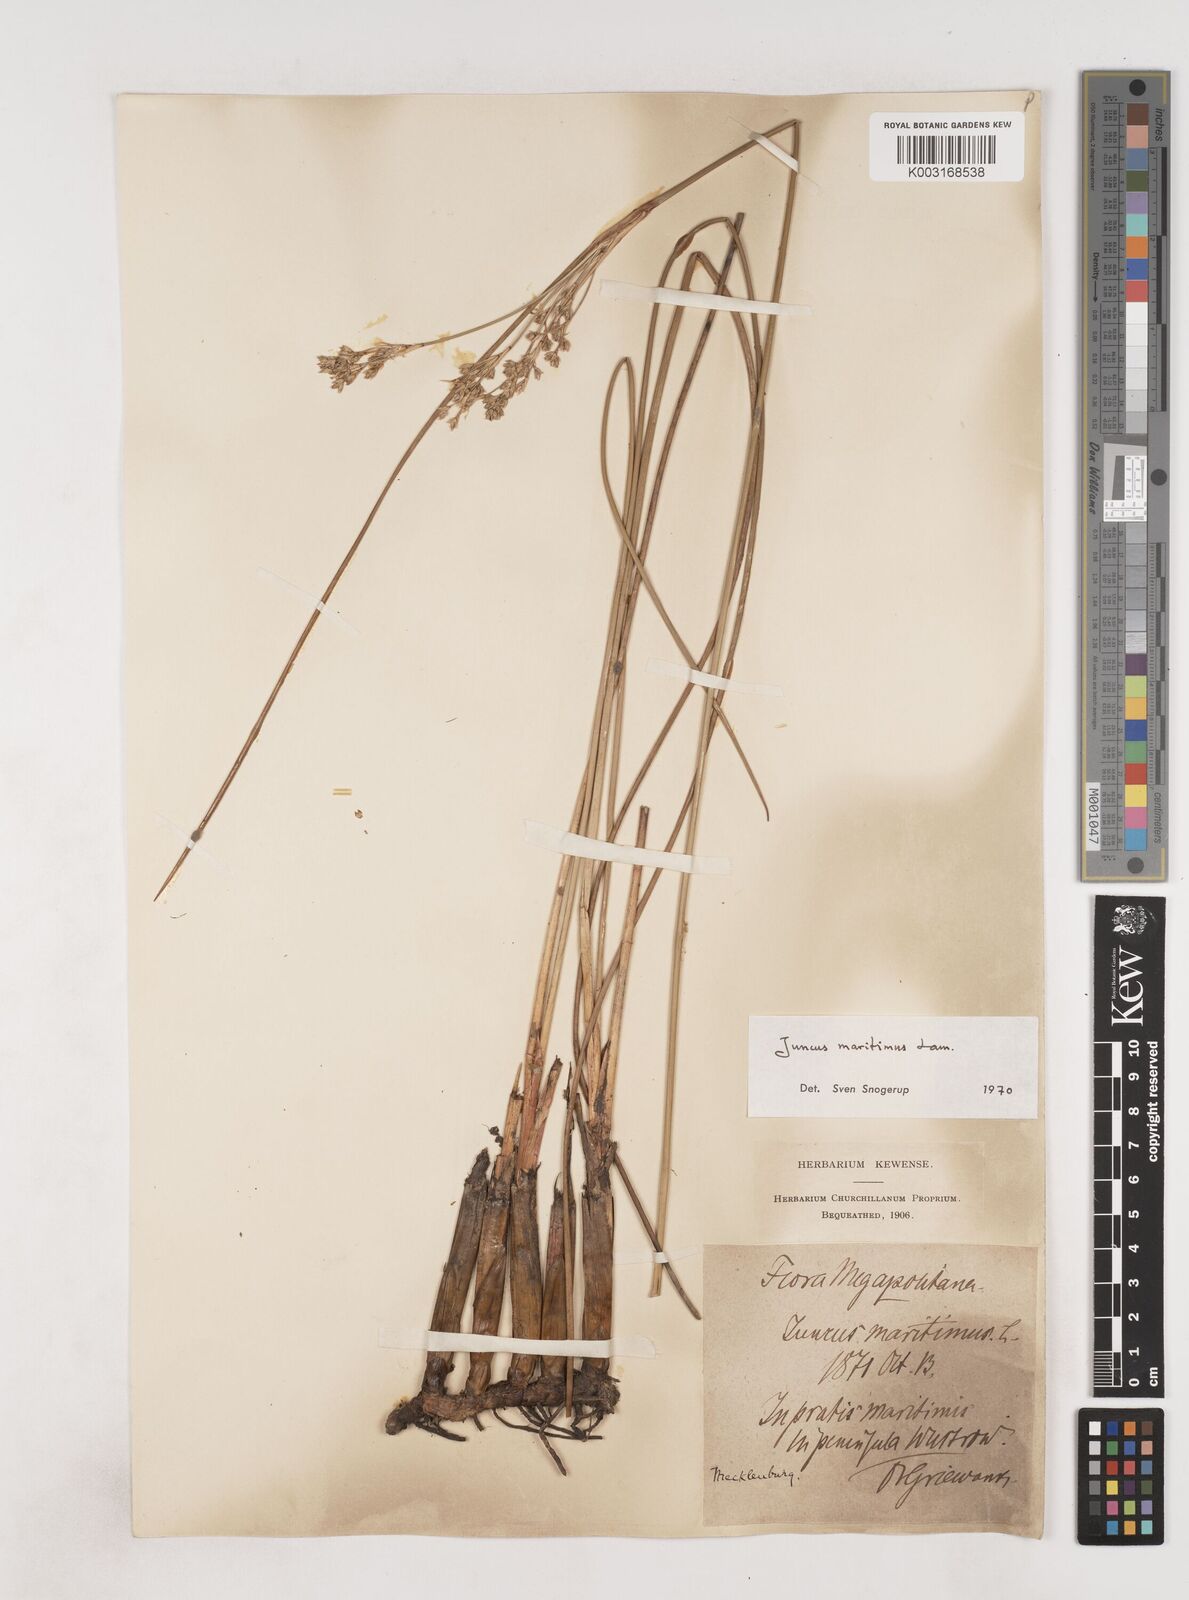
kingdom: Plantae
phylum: Tracheophyta
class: Liliopsida
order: Poales
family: Juncaceae
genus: Juncus
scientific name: Juncus maritimus
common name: Sea rush
